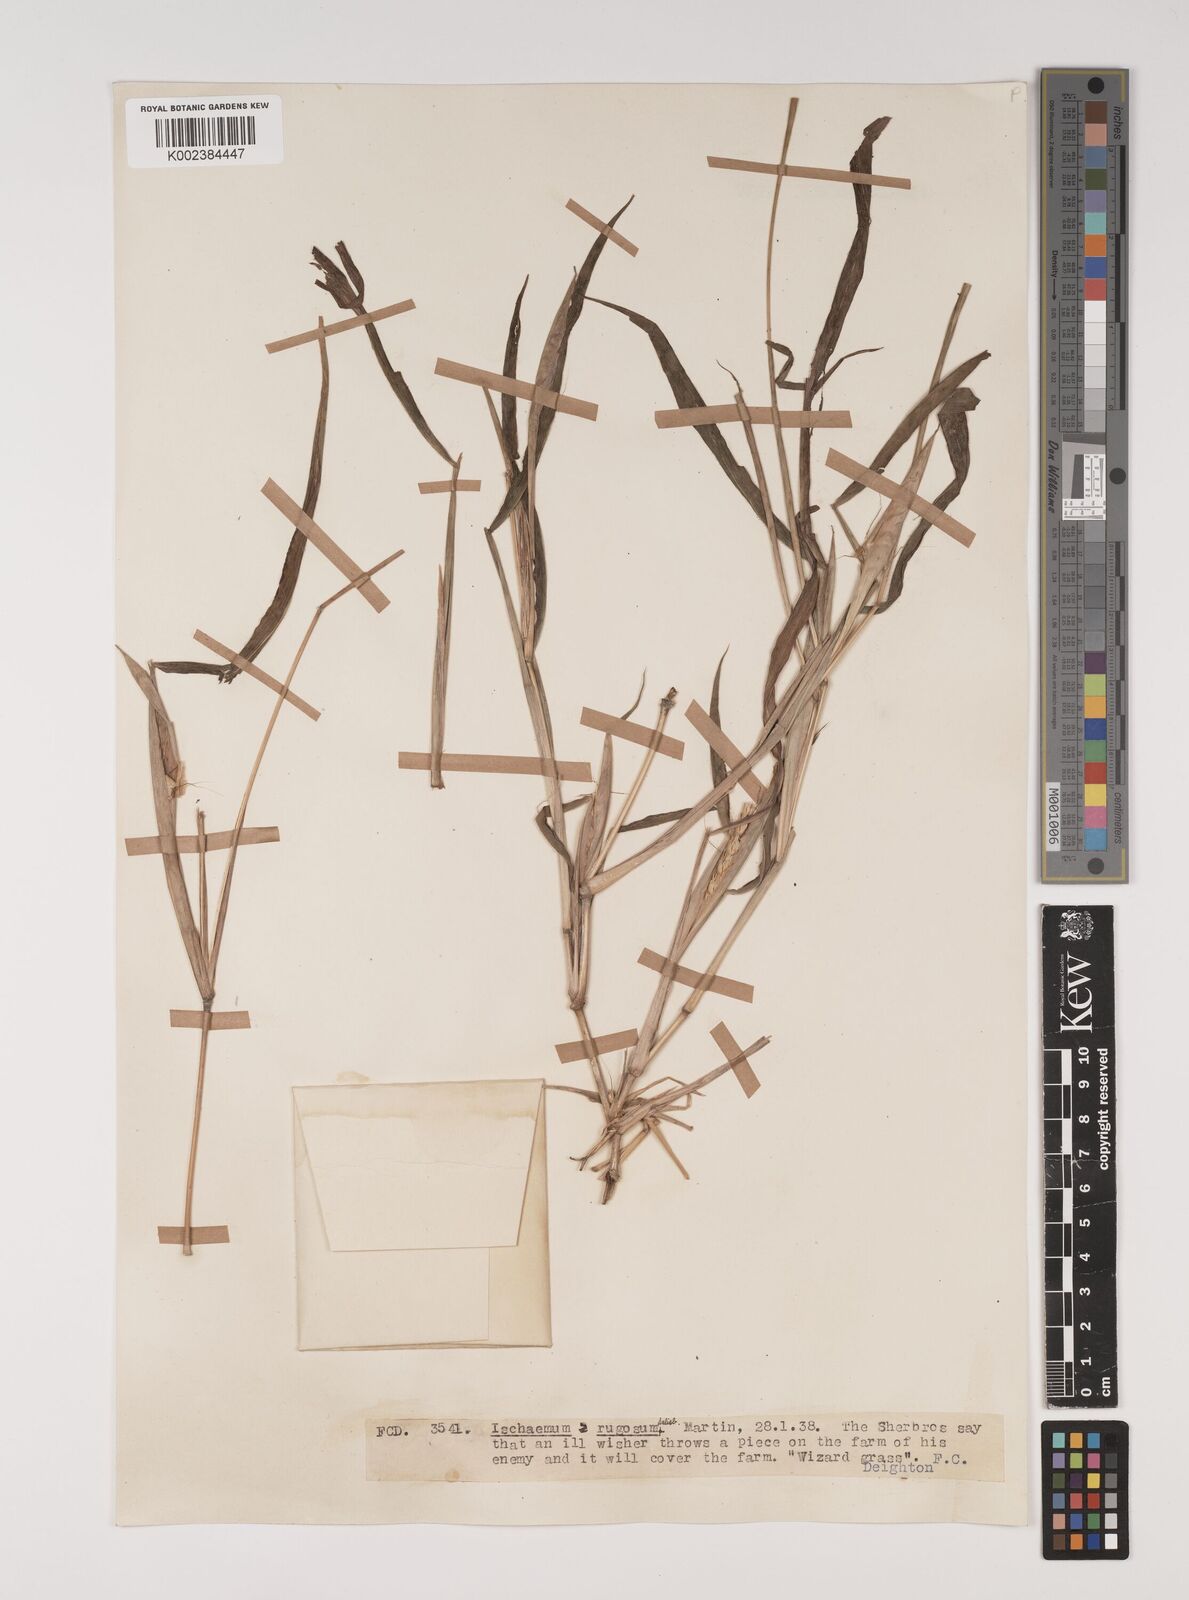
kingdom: Plantae
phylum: Tracheophyta
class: Liliopsida
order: Poales
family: Poaceae
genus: Ischaemum
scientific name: Ischaemum rugosum
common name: Saramatta grass
